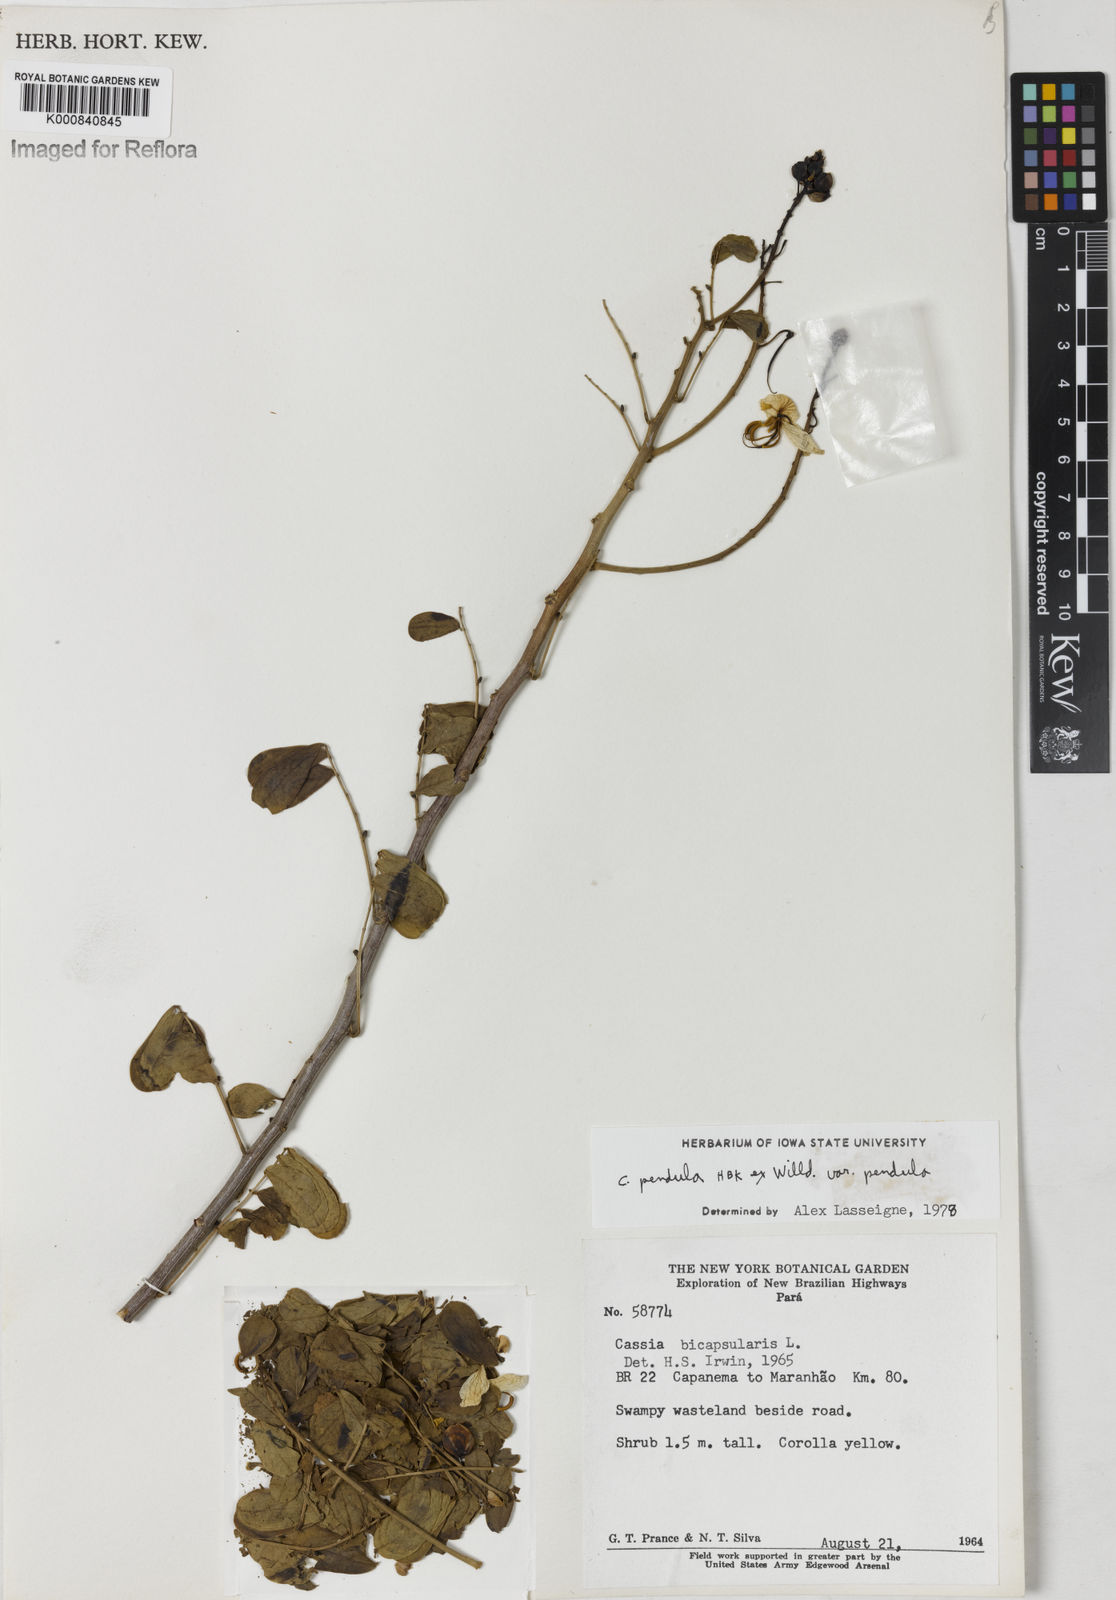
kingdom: Plantae
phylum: Tracheophyta
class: Magnoliopsida
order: Fabales
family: Fabaceae
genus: Senna
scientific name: Senna pendula
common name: Easter cassia
